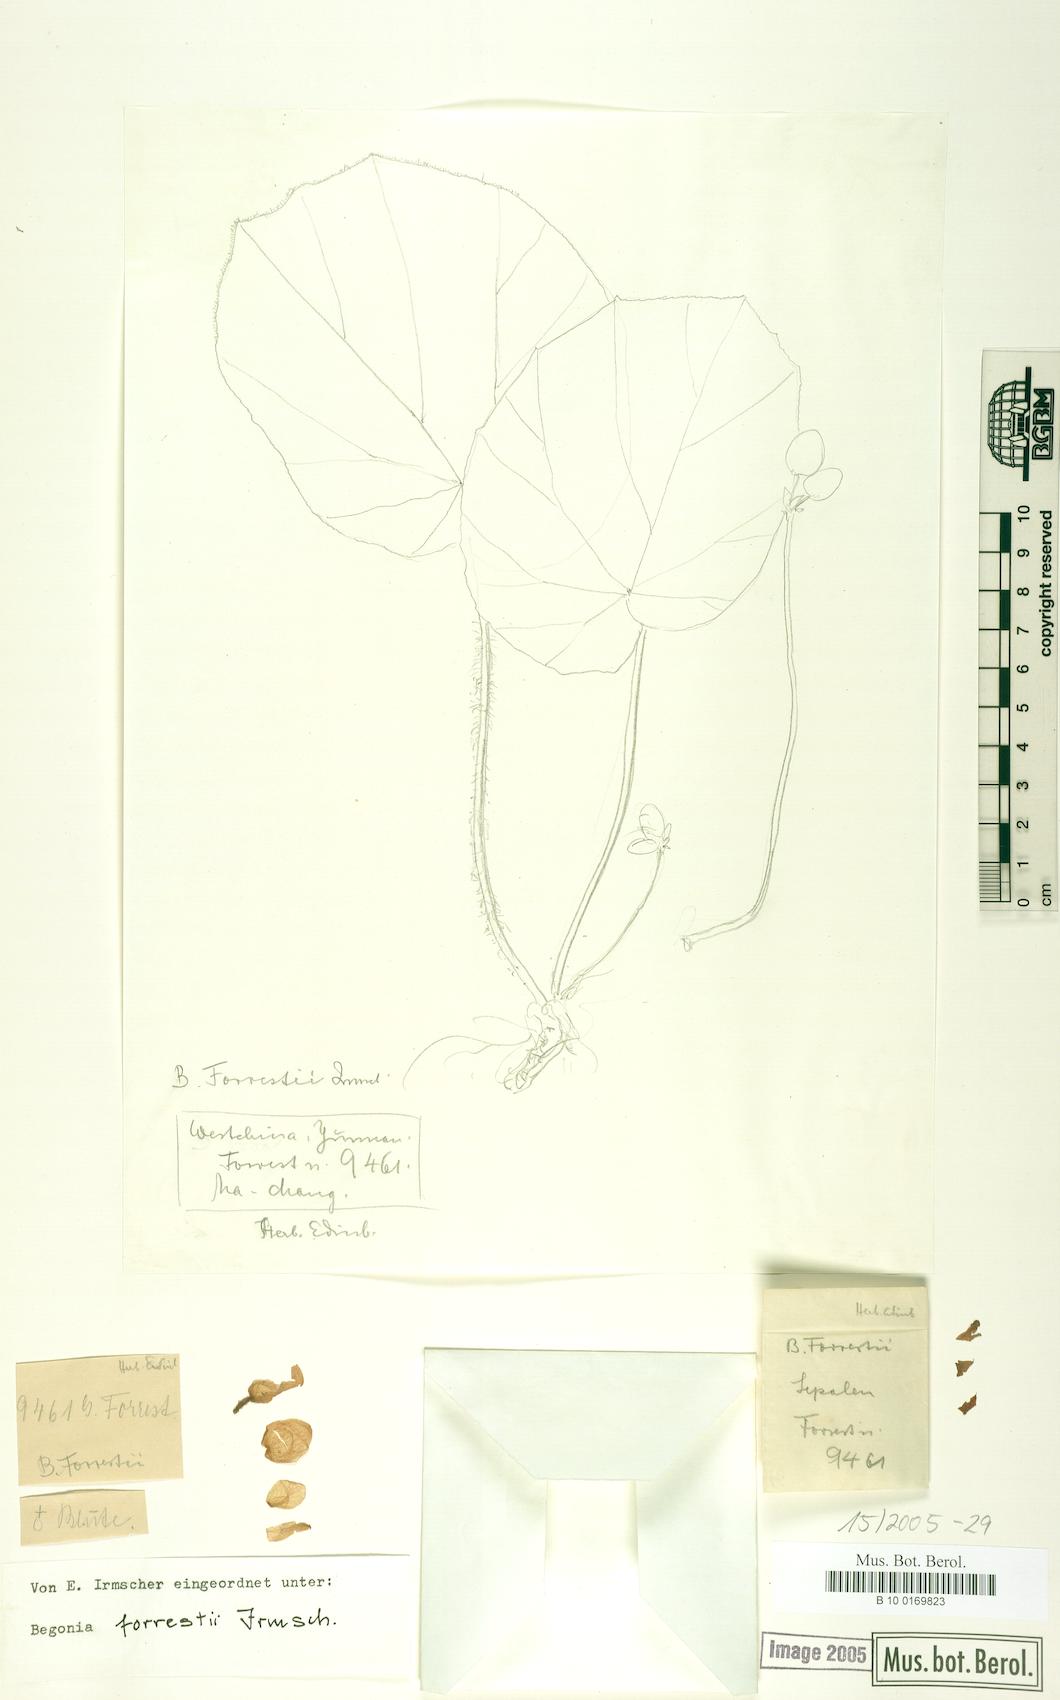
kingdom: Plantae
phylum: Tracheophyta
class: Magnoliopsida
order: Cucurbitales
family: Begoniaceae
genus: Begonia
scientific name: Begonia forrestii
